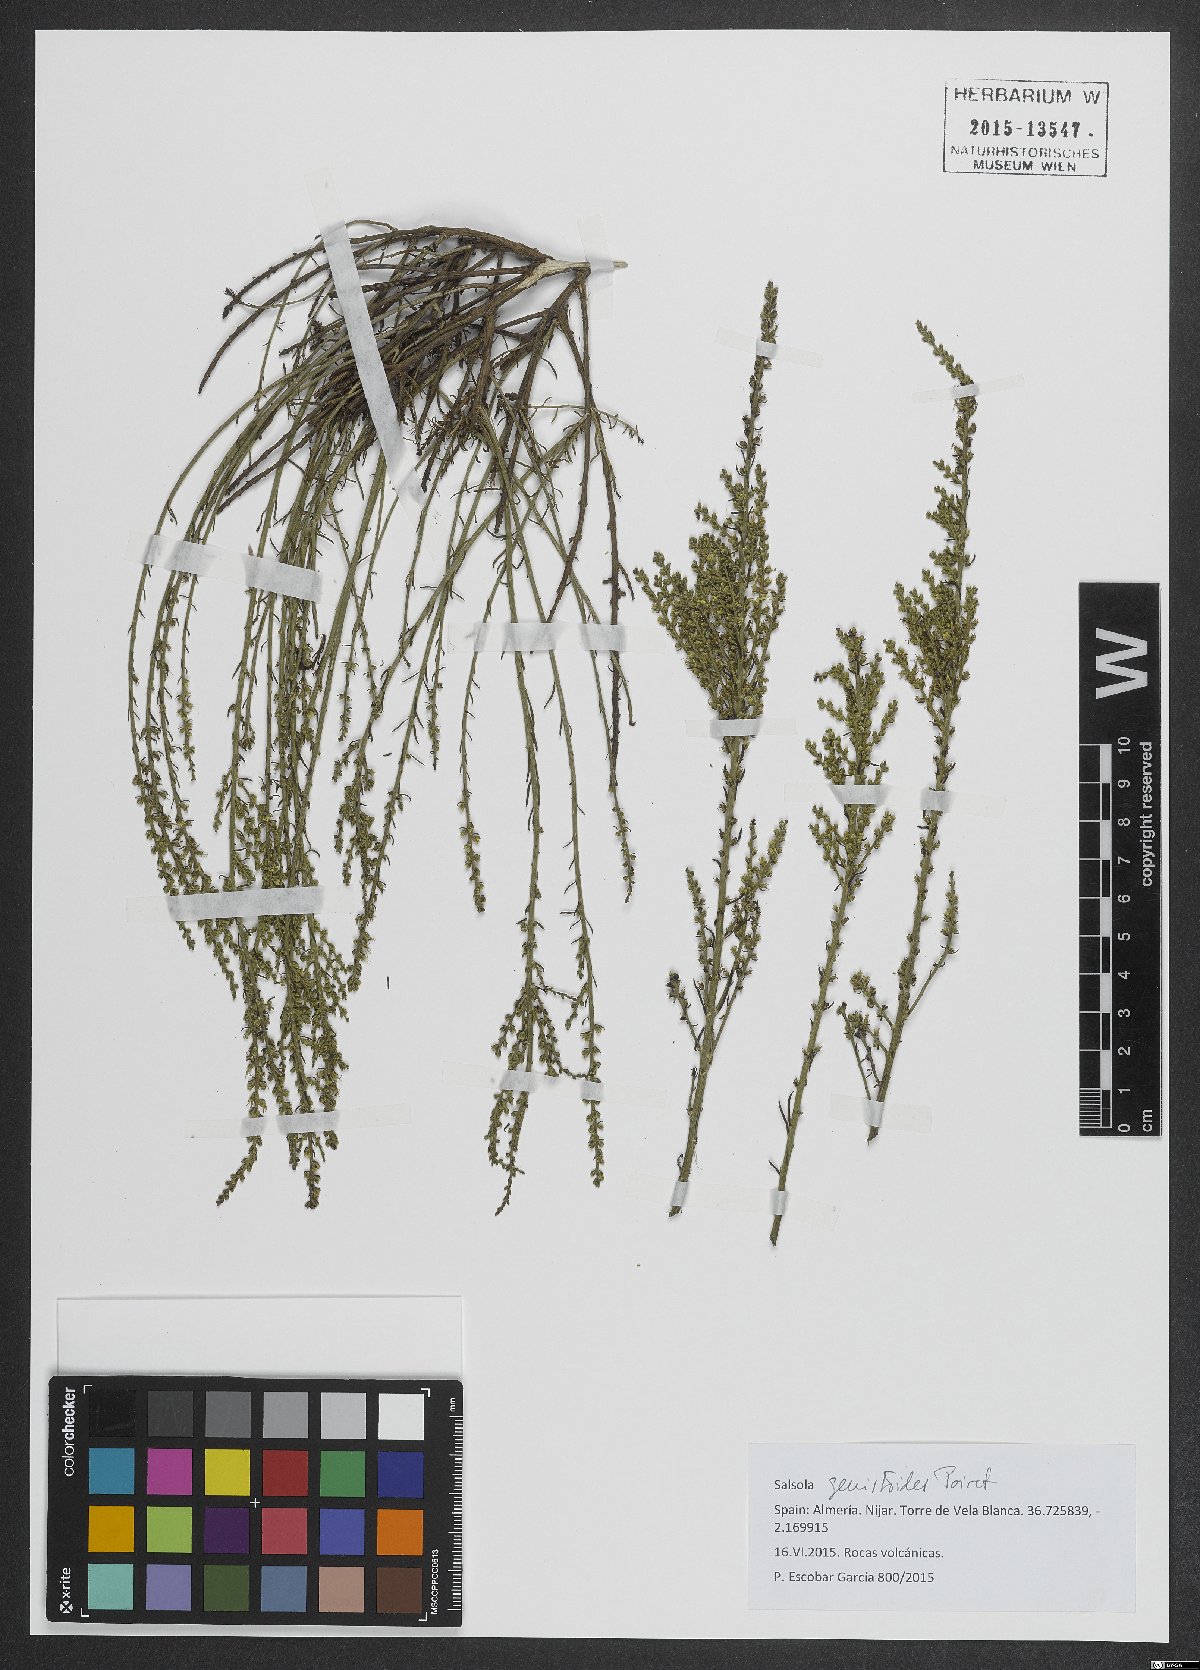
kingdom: Plantae
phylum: Tracheophyta
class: Magnoliopsida
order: Caryophyllales
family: Amaranthaceae
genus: Caroxylon
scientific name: Caroxylon genistoides
